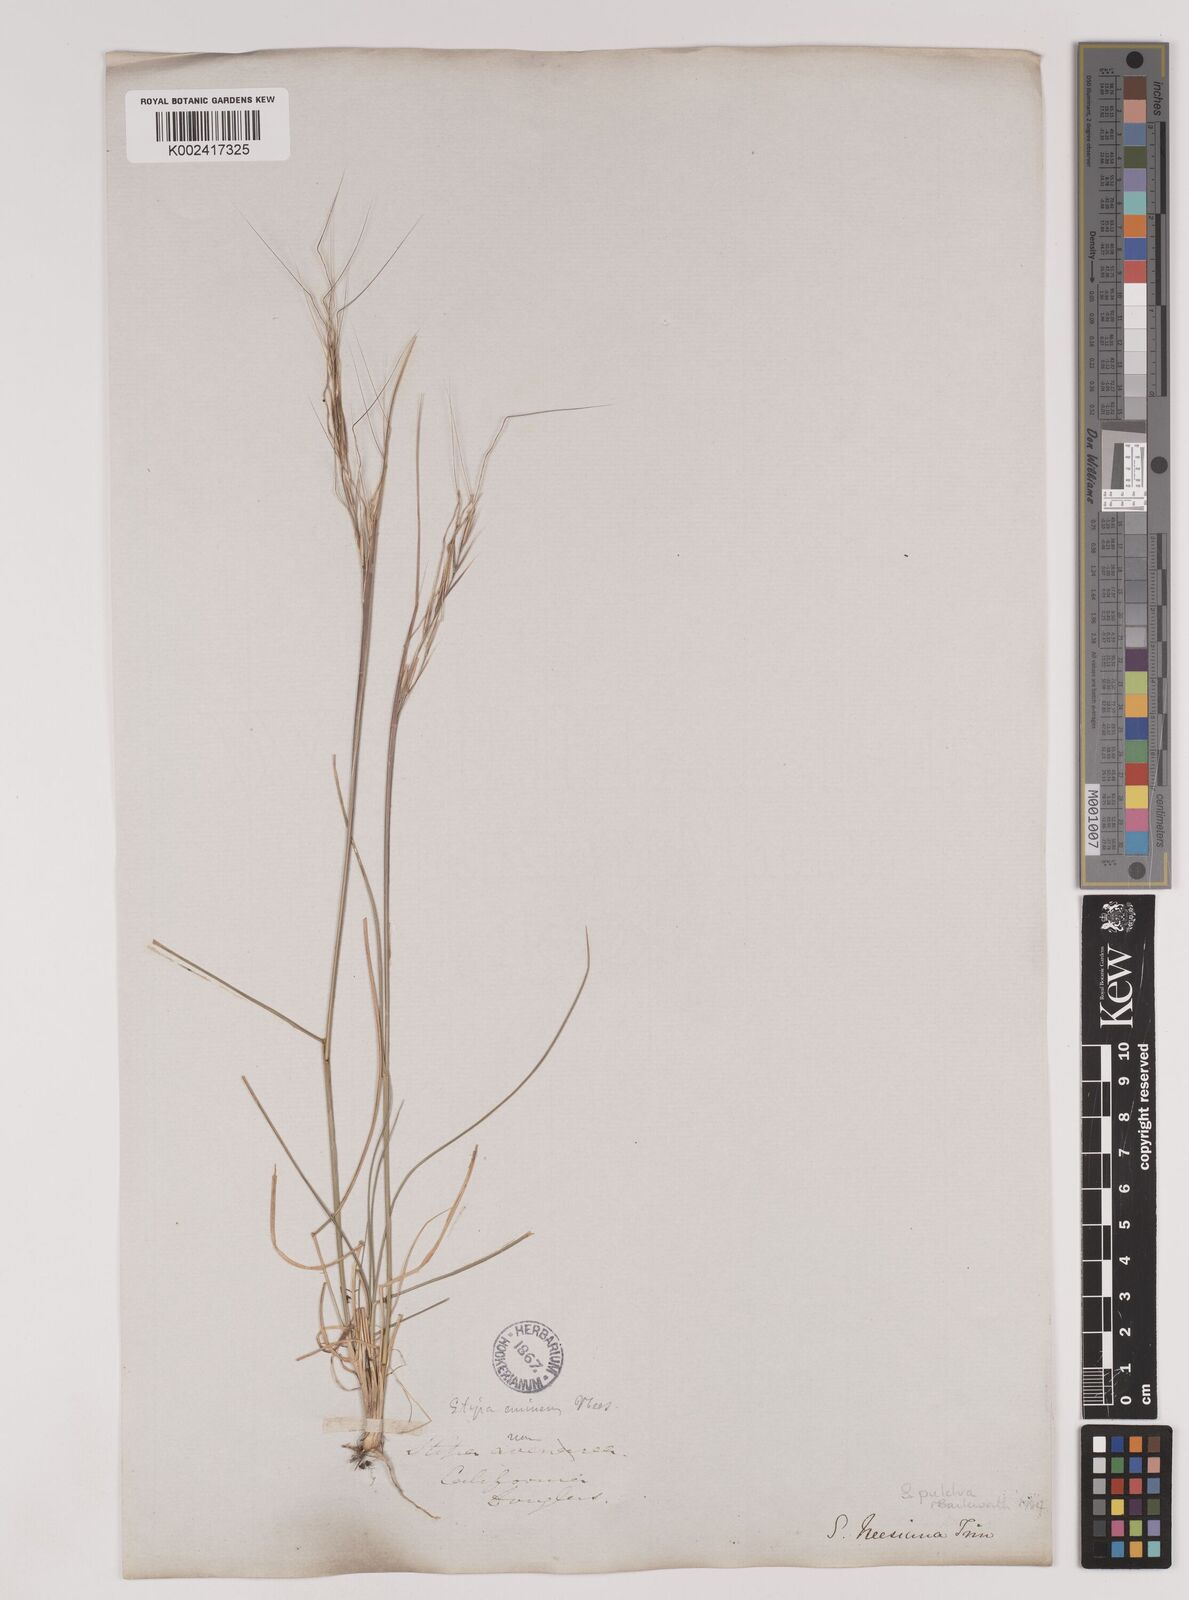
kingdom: Plantae
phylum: Tracheophyta
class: Liliopsida
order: Poales
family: Poaceae
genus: Nassella
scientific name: Nassella pulchra
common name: Purple needlegrass
